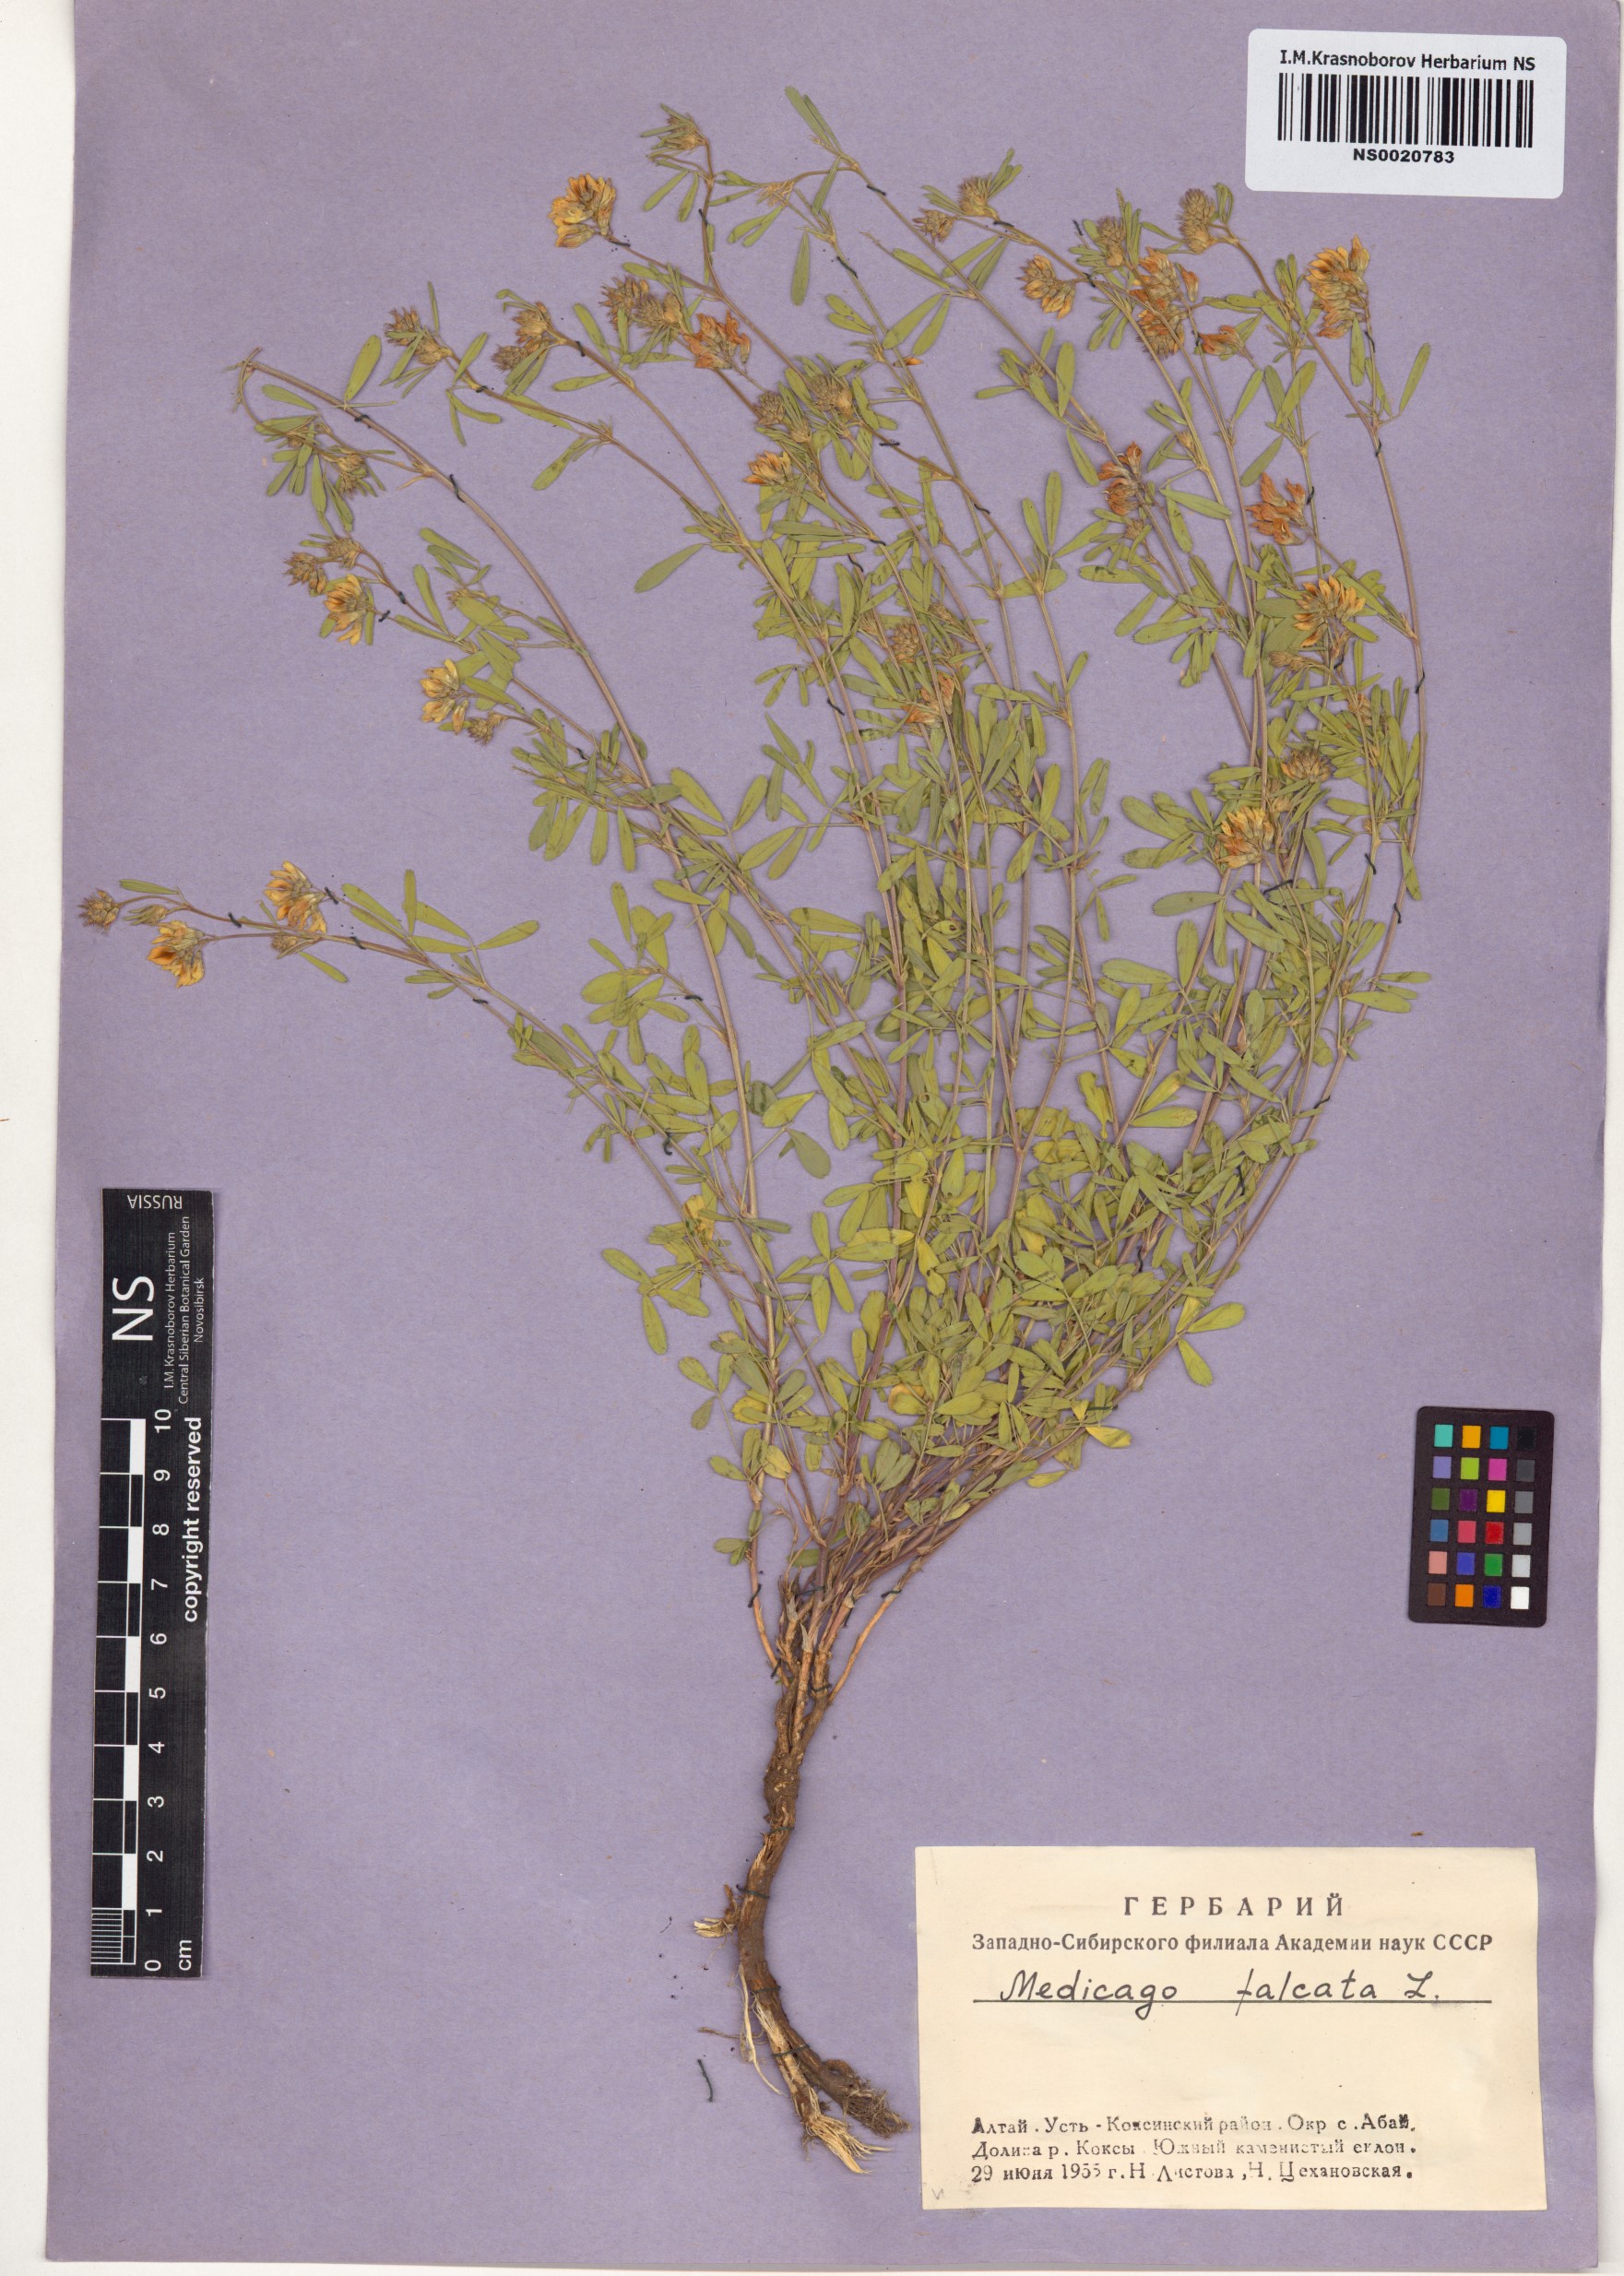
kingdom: Plantae
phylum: Tracheophyta
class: Magnoliopsida
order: Fabales
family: Fabaceae
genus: Medicago
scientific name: Medicago falcata
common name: Sickle medick
